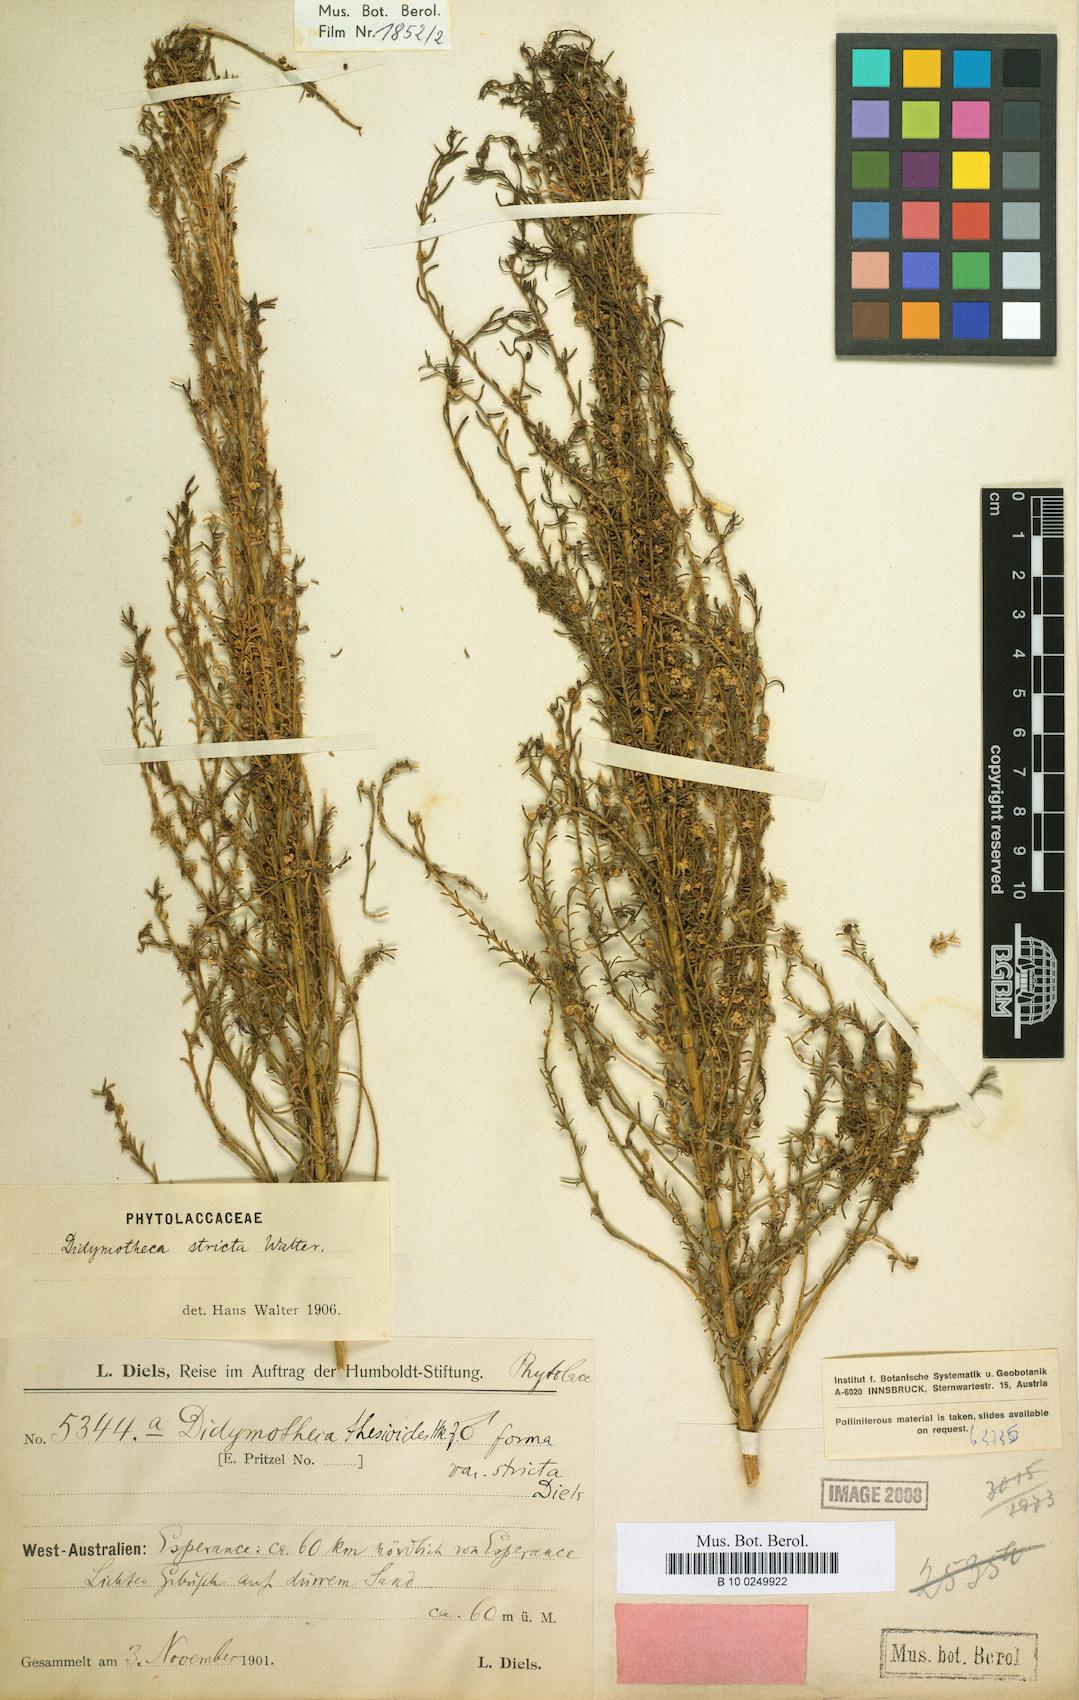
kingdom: Plantae
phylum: Tracheophyta
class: Magnoliopsida
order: Brassicales
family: Gyrostemonaceae
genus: Gyrostemon
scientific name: Gyrostemon
